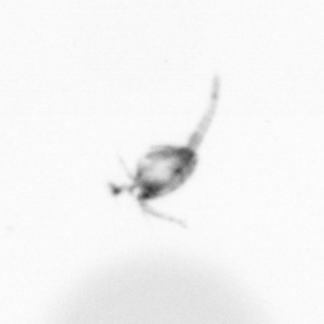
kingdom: Animalia
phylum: Arthropoda
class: Copepoda
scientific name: Copepoda
